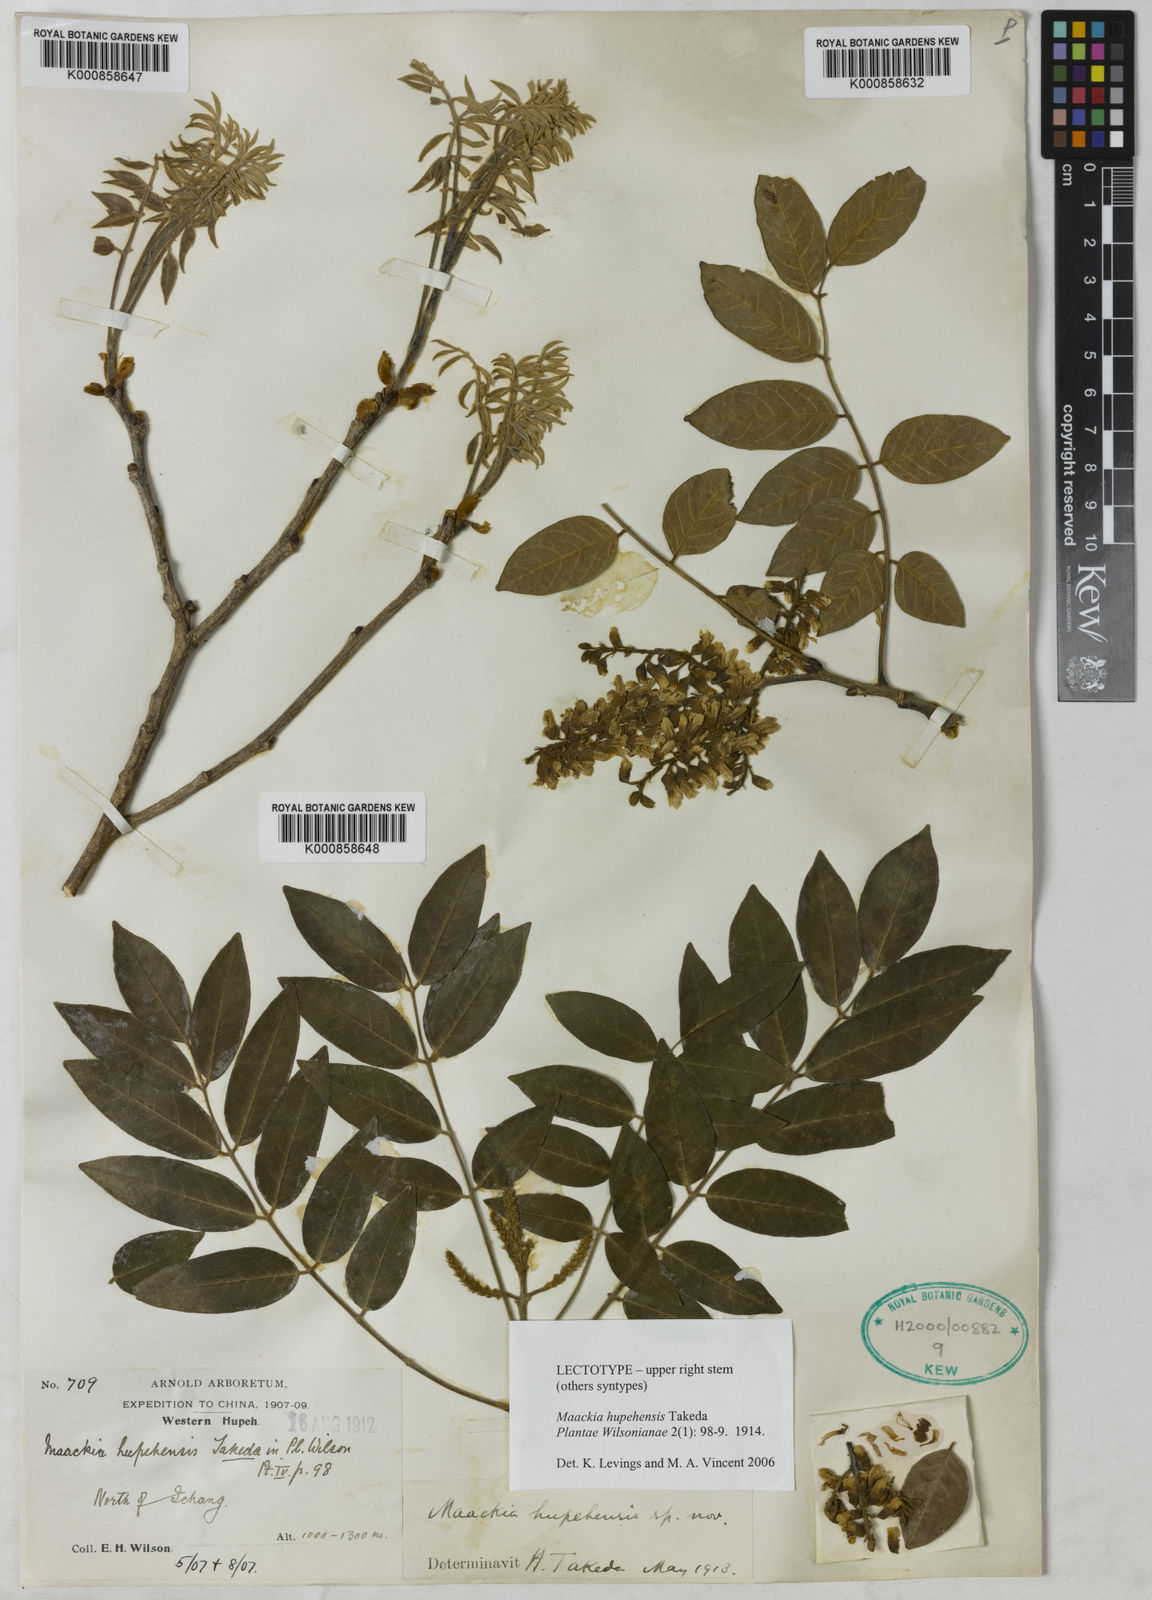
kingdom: Plantae
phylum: Tracheophyta
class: Magnoliopsida
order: Fabales
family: Fabaceae
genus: Maackia
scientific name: Maackia hupehensis
